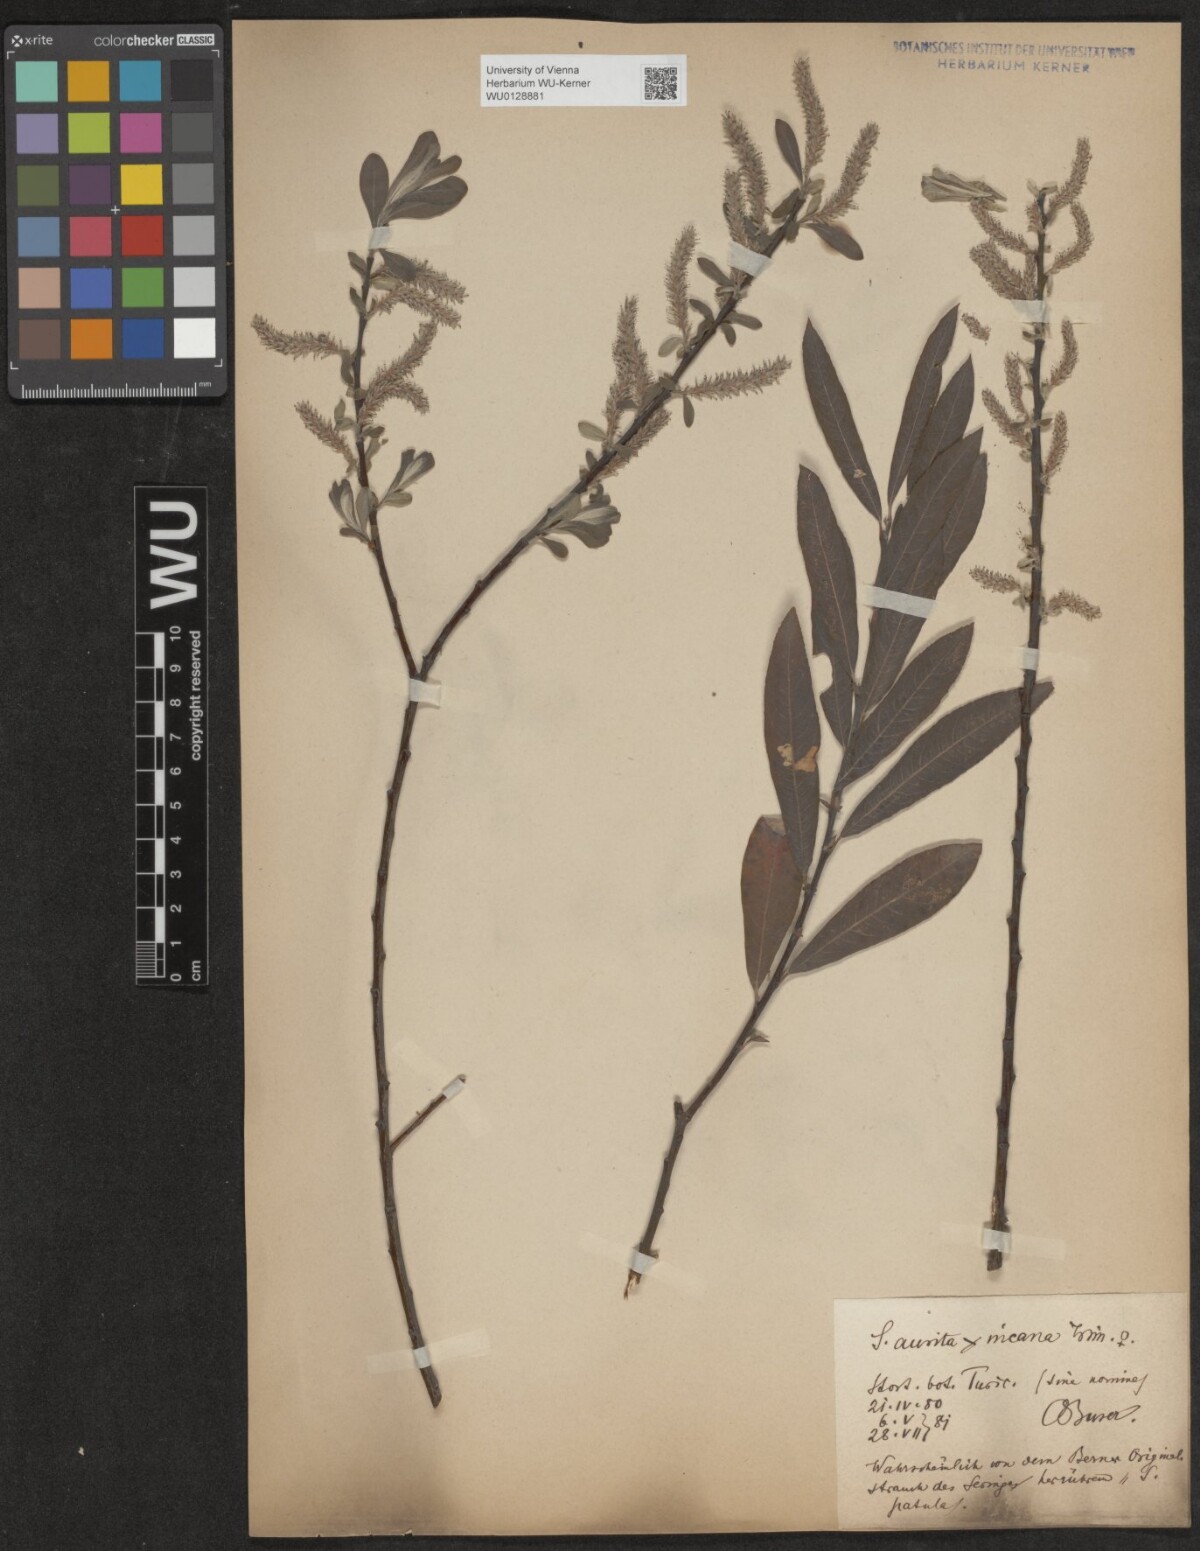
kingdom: Plantae
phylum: Tracheophyta
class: Magnoliopsida
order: Malpighiales
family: Salicaceae
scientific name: Salicaceae
